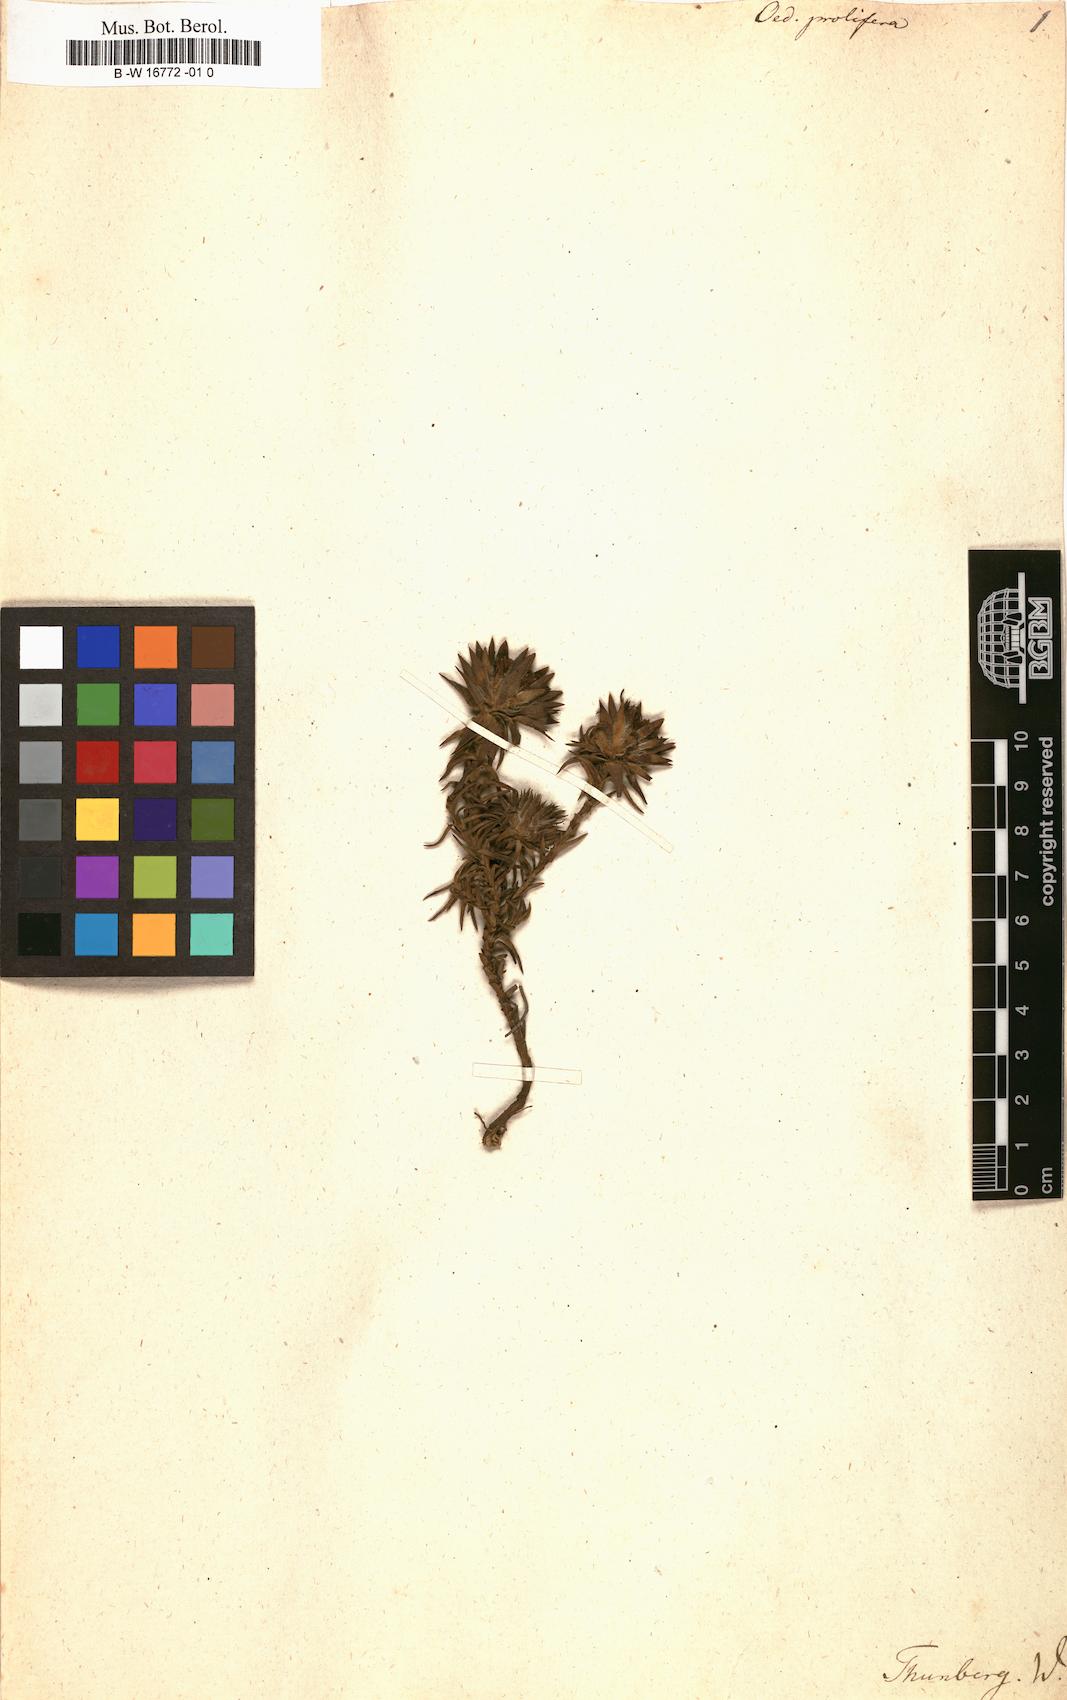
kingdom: Plantae
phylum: Tracheophyta
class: Magnoliopsida
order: Asterales
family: Asteraceae
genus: Oedera
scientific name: Oedera capensis
